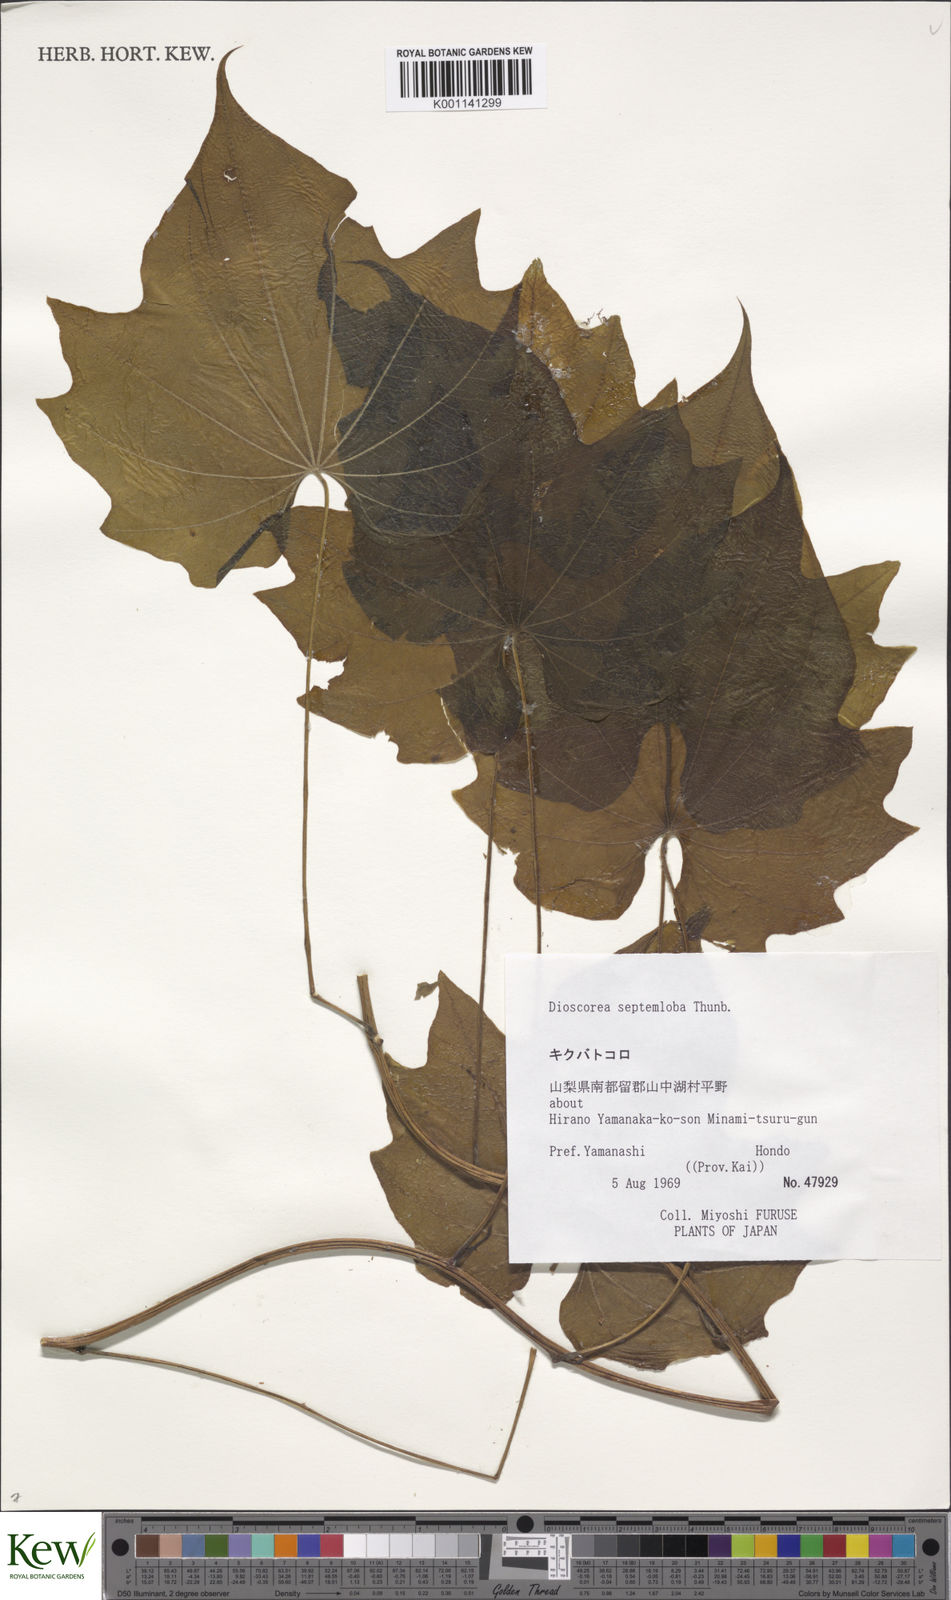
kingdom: Plantae
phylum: Tracheophyta
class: Liliopsida
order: Dioscoreales
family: Dioscoreaceae
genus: Dioscorea
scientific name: Dioscorea septemloba
